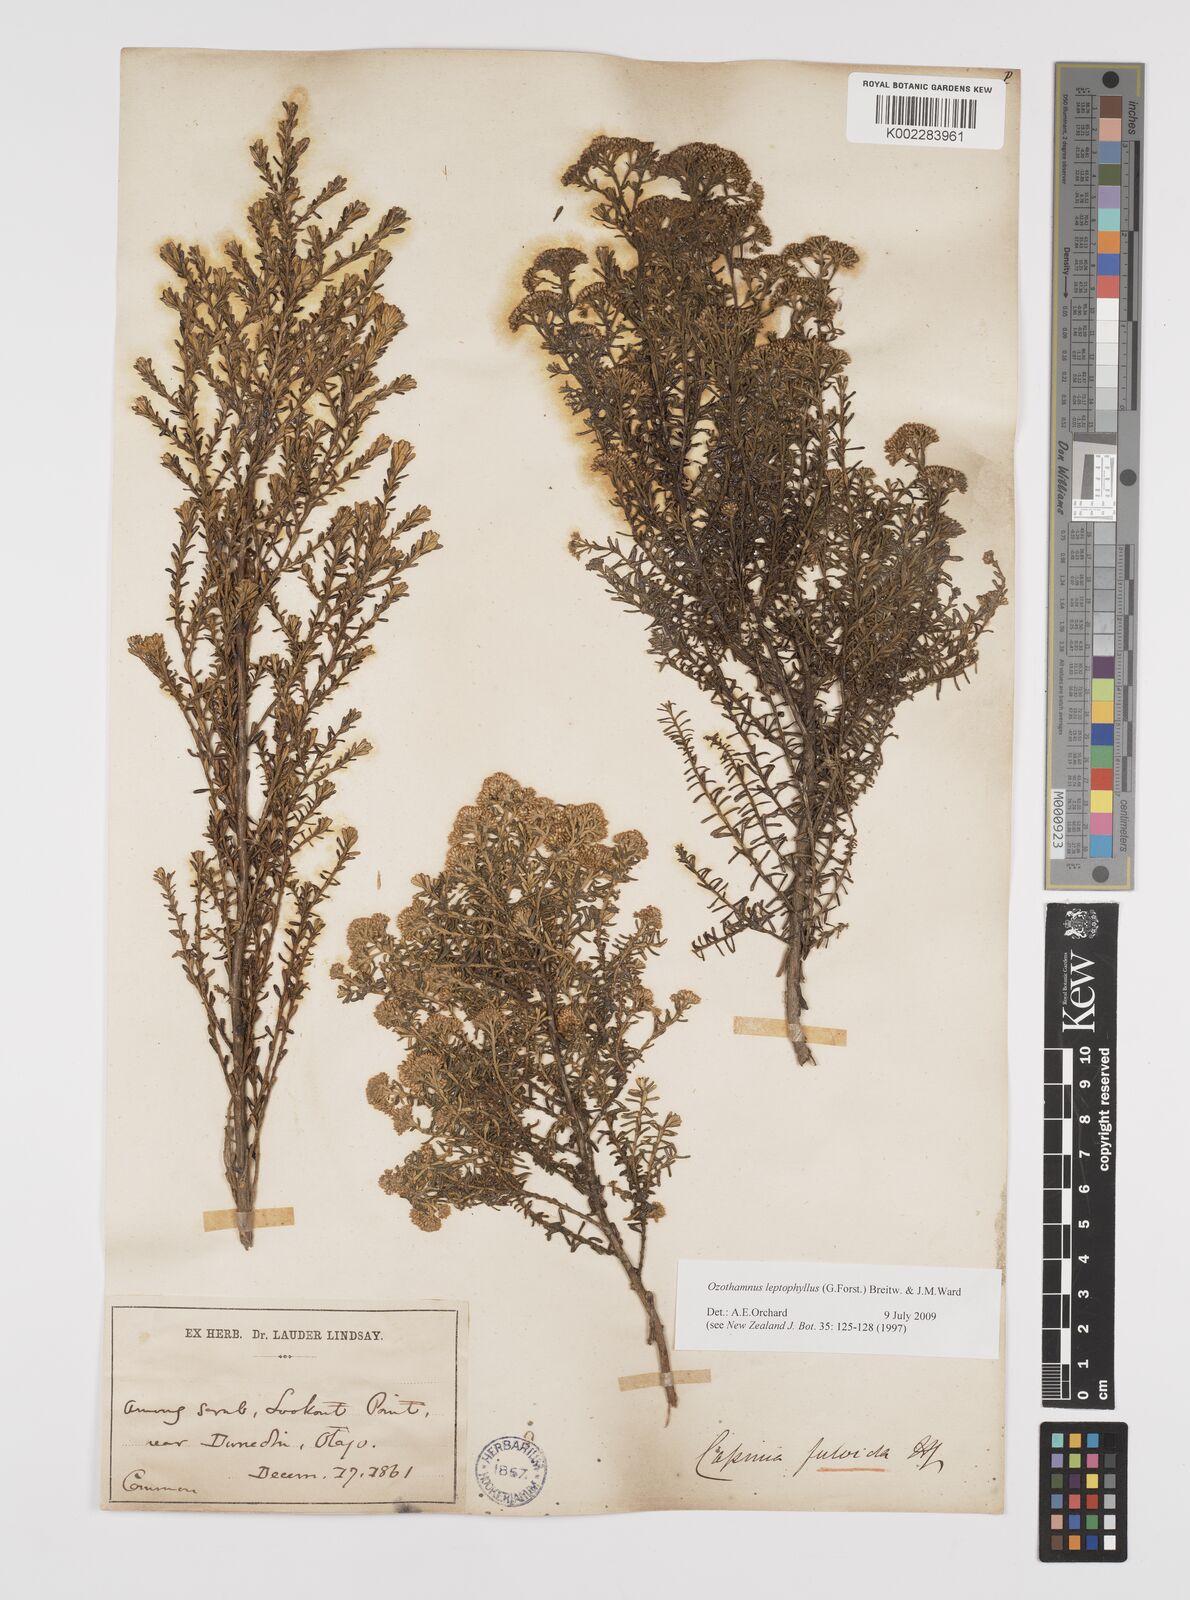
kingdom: Plantae
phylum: Tracheophyta
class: Magnoliopsida
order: Asterales
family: Asteraceae
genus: Ozothamnus
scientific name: Ozothamnus leptophyllus
